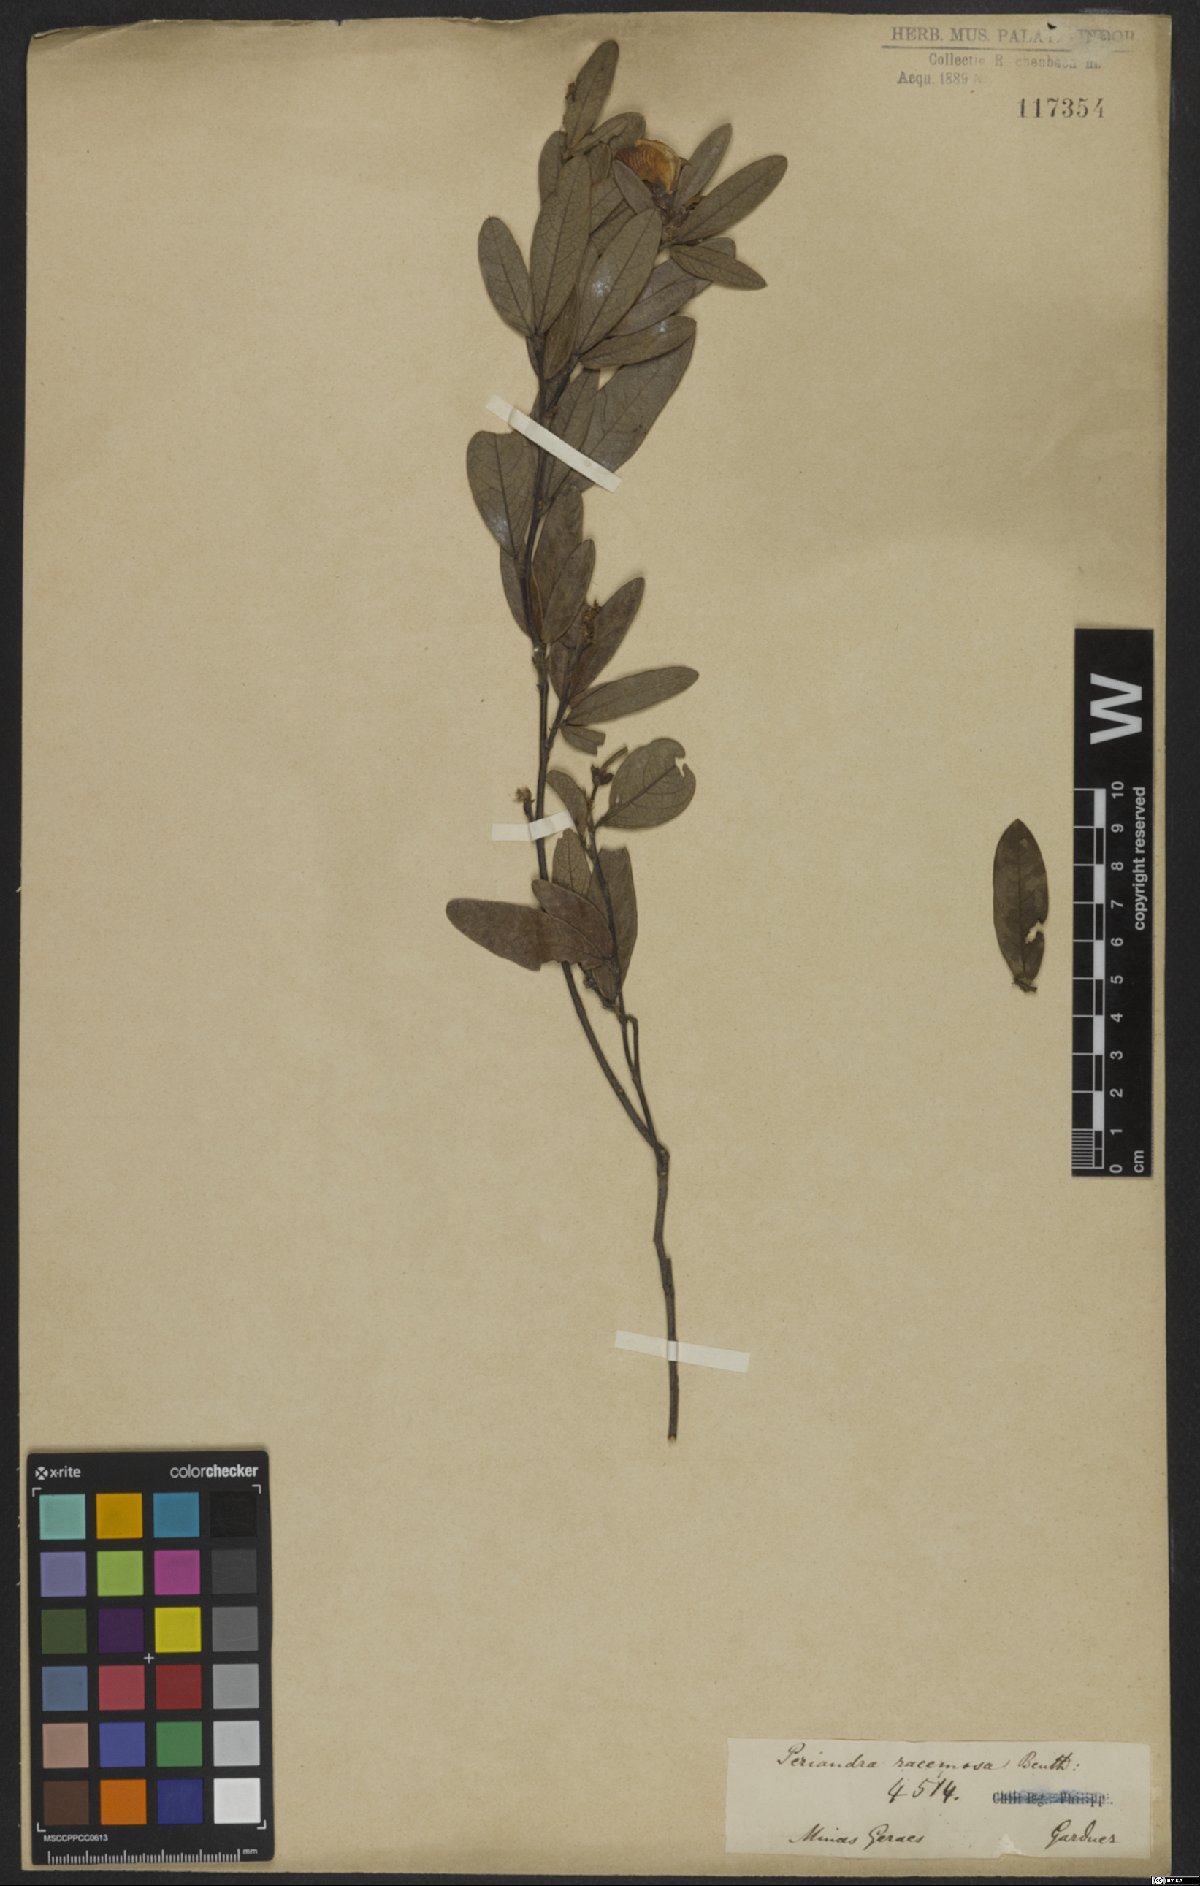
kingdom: Plantae
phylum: Tracheophyta
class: Magnoliopsida
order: Fabales
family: Fabaceae
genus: Periandra
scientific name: Periandra mediterranea
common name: Brazilian licorice
